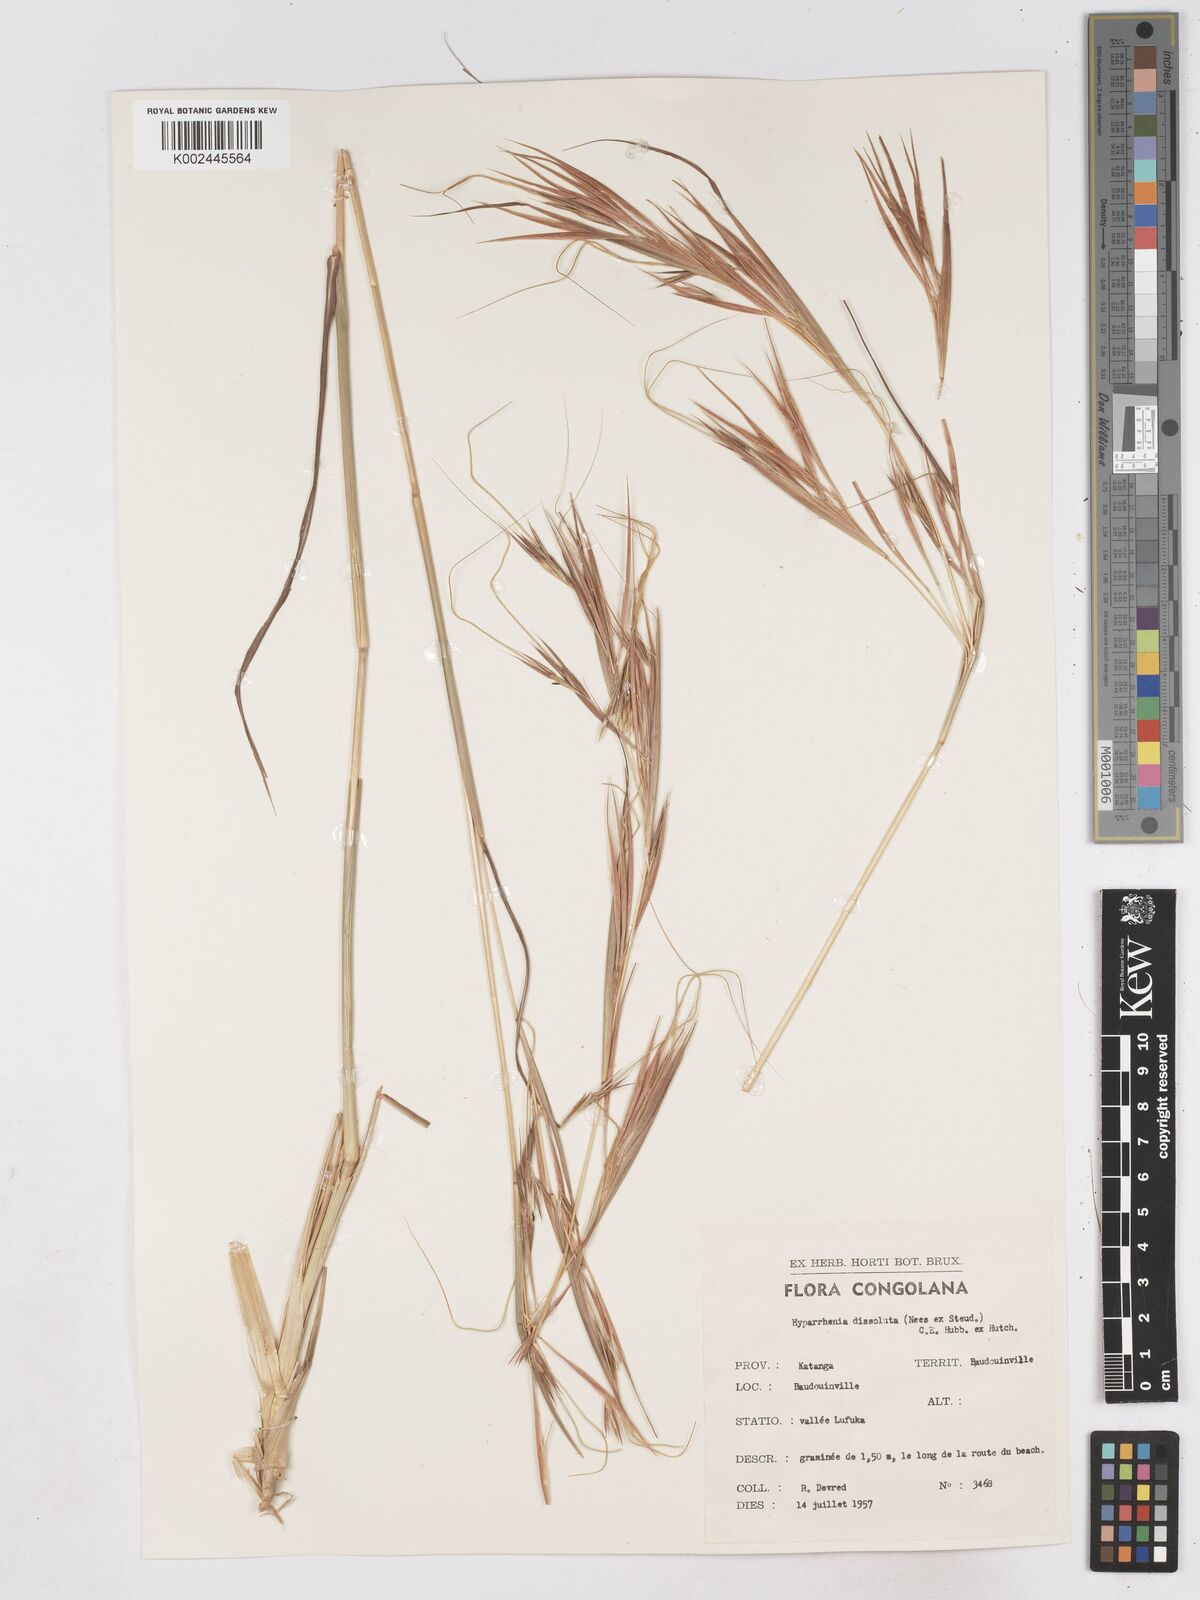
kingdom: Plantae
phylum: Tracheophyta
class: Liliopsida
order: Poales
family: Poaceae
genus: Hyperthelia
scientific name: Hyperthelia dissoluta
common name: Yellow thatching grass
